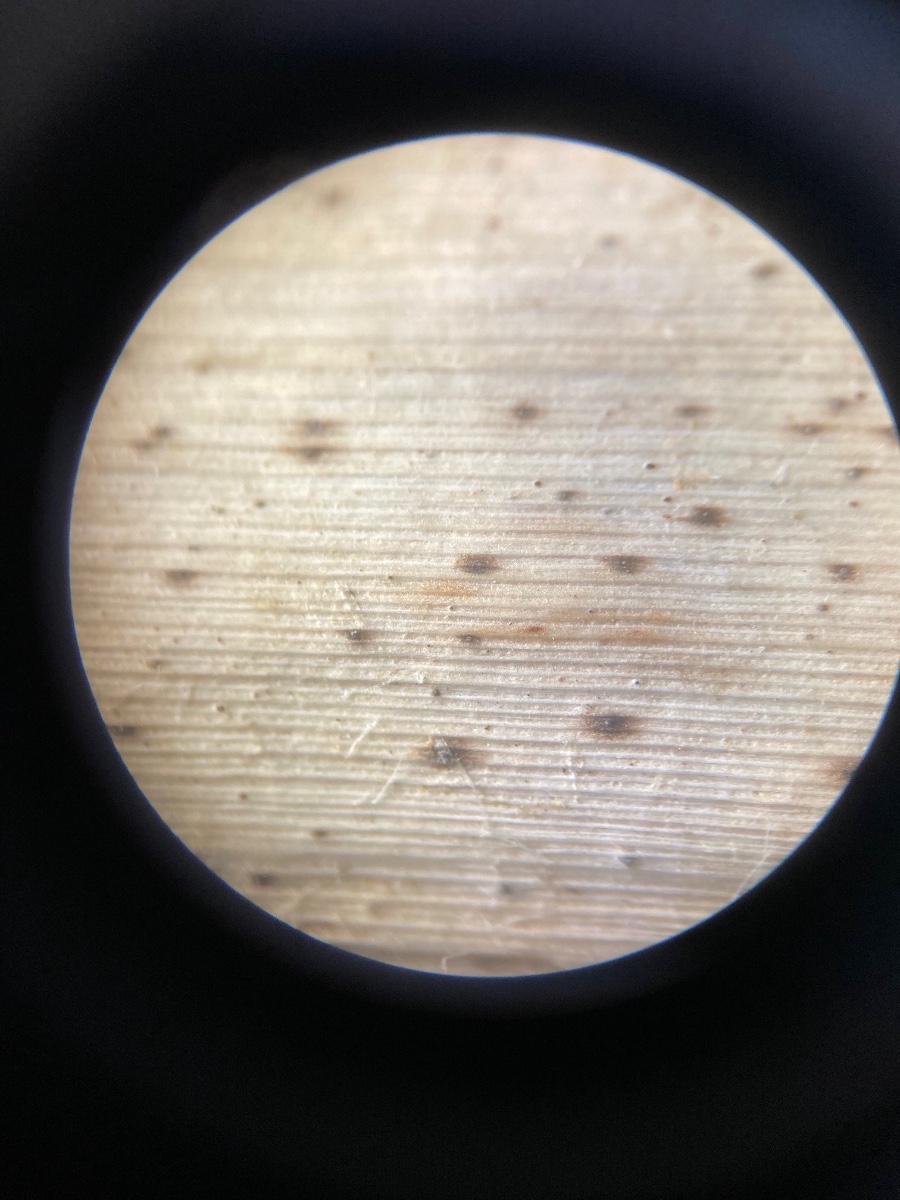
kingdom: Fungi
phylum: Ascomycota
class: Dothideomycetes
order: Pleosporales
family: Didymosphaeriaceae
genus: Didymosphaeria
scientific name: Didymosphaeria futilis
